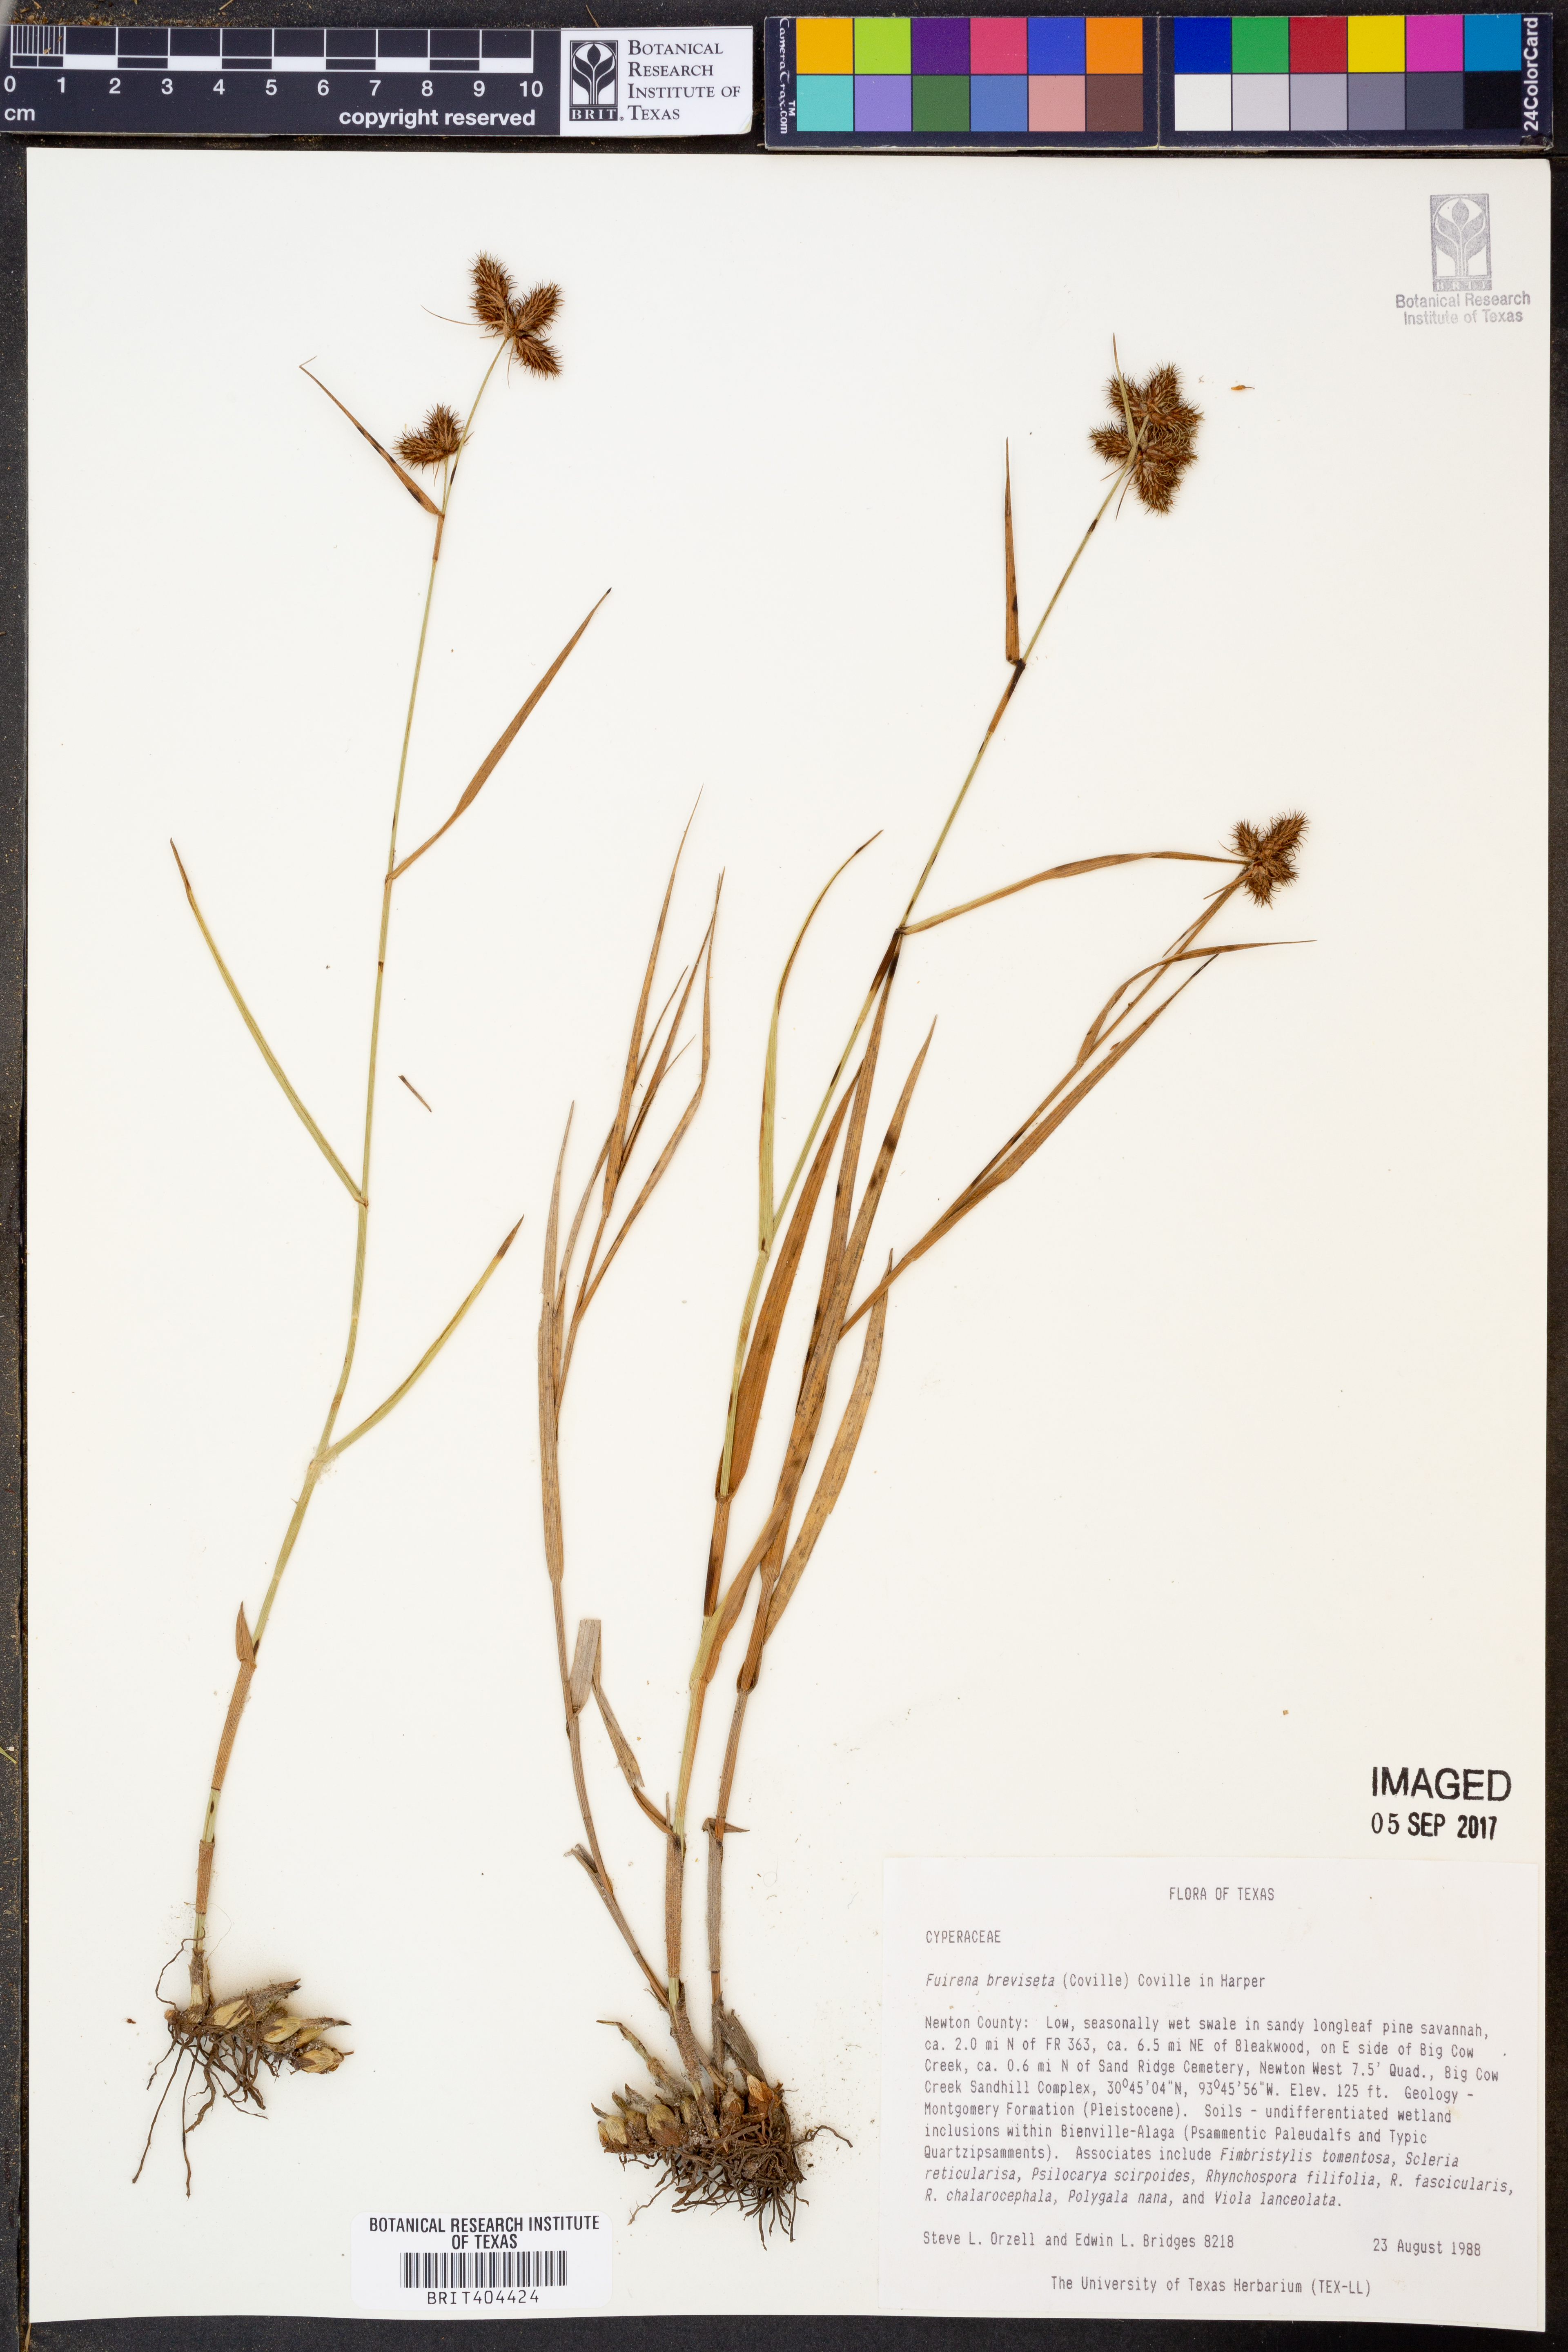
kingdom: Plantae
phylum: Tracheophyta
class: Liliopsida
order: Poales
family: Cyperaceae
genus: Fuirena
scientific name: Fuirena breviseta
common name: Saltmarsh umbrella sedge
